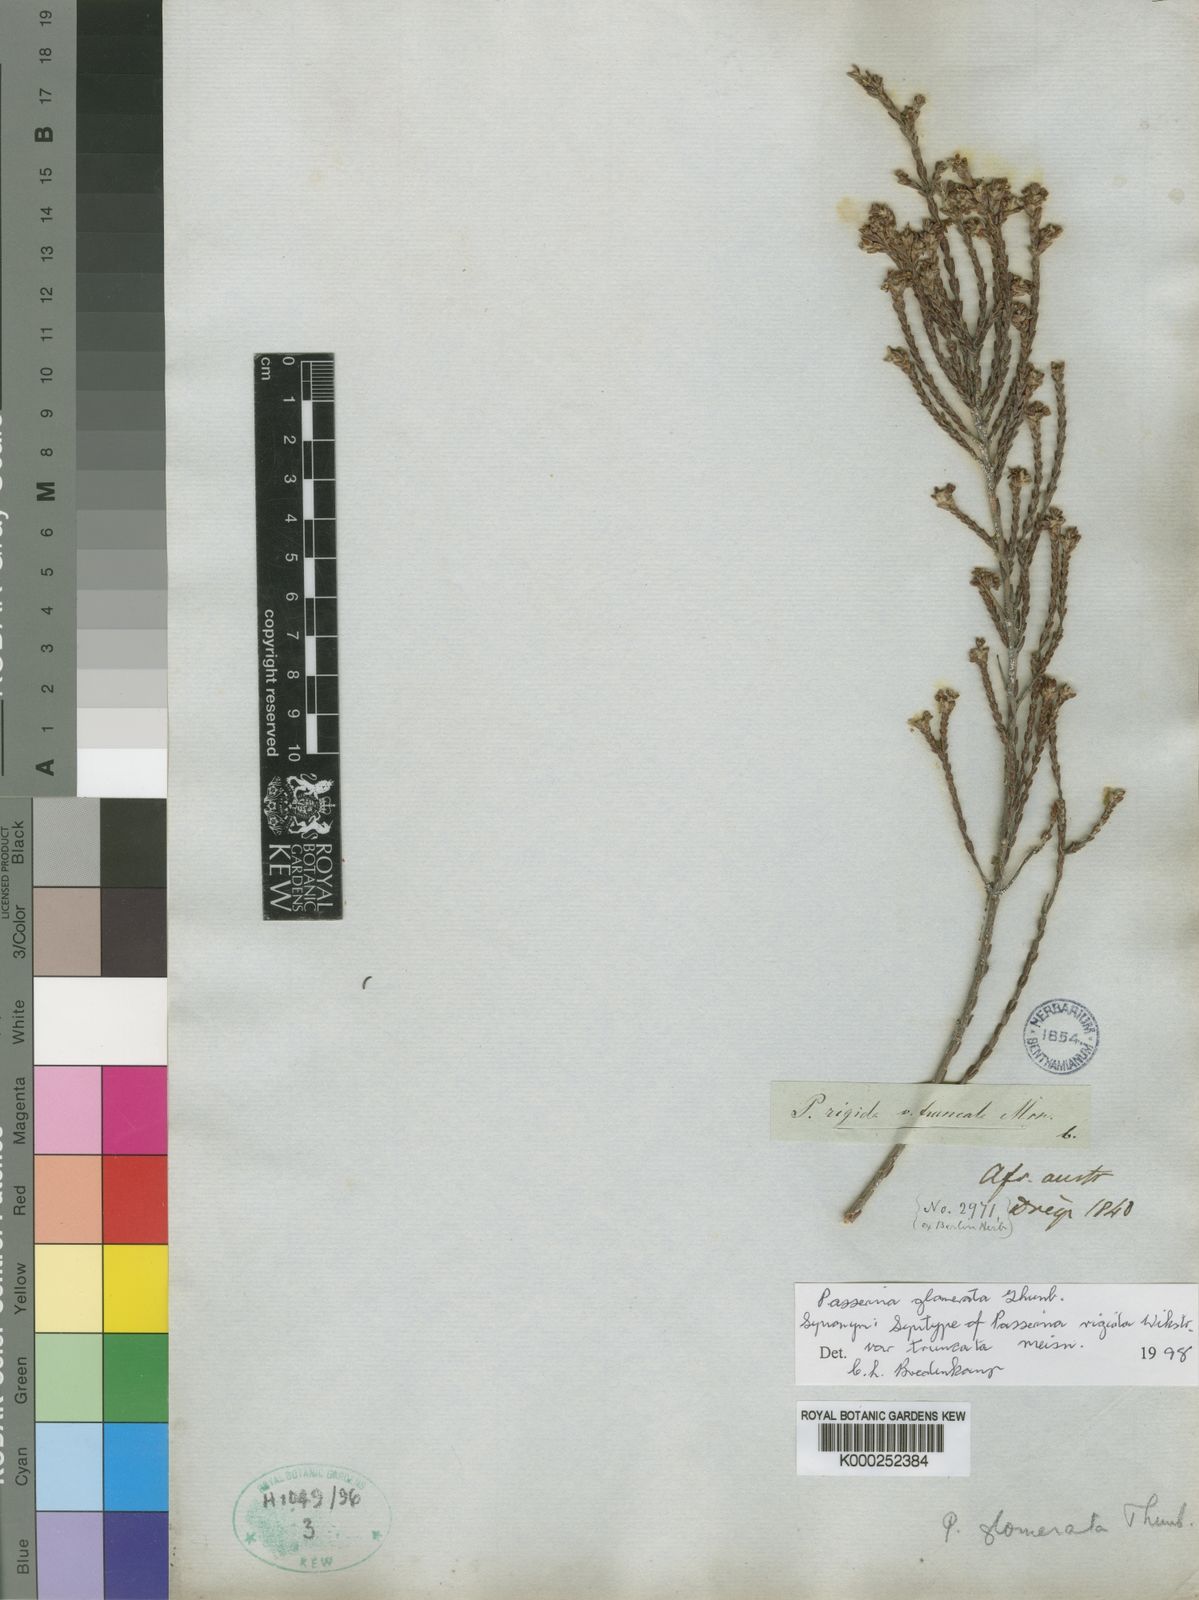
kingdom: Plantae
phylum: Tracheophyta
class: Magnoliopsida
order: Malvales
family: Thymelaeaceae
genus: Passerina
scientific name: Passerina rigida
